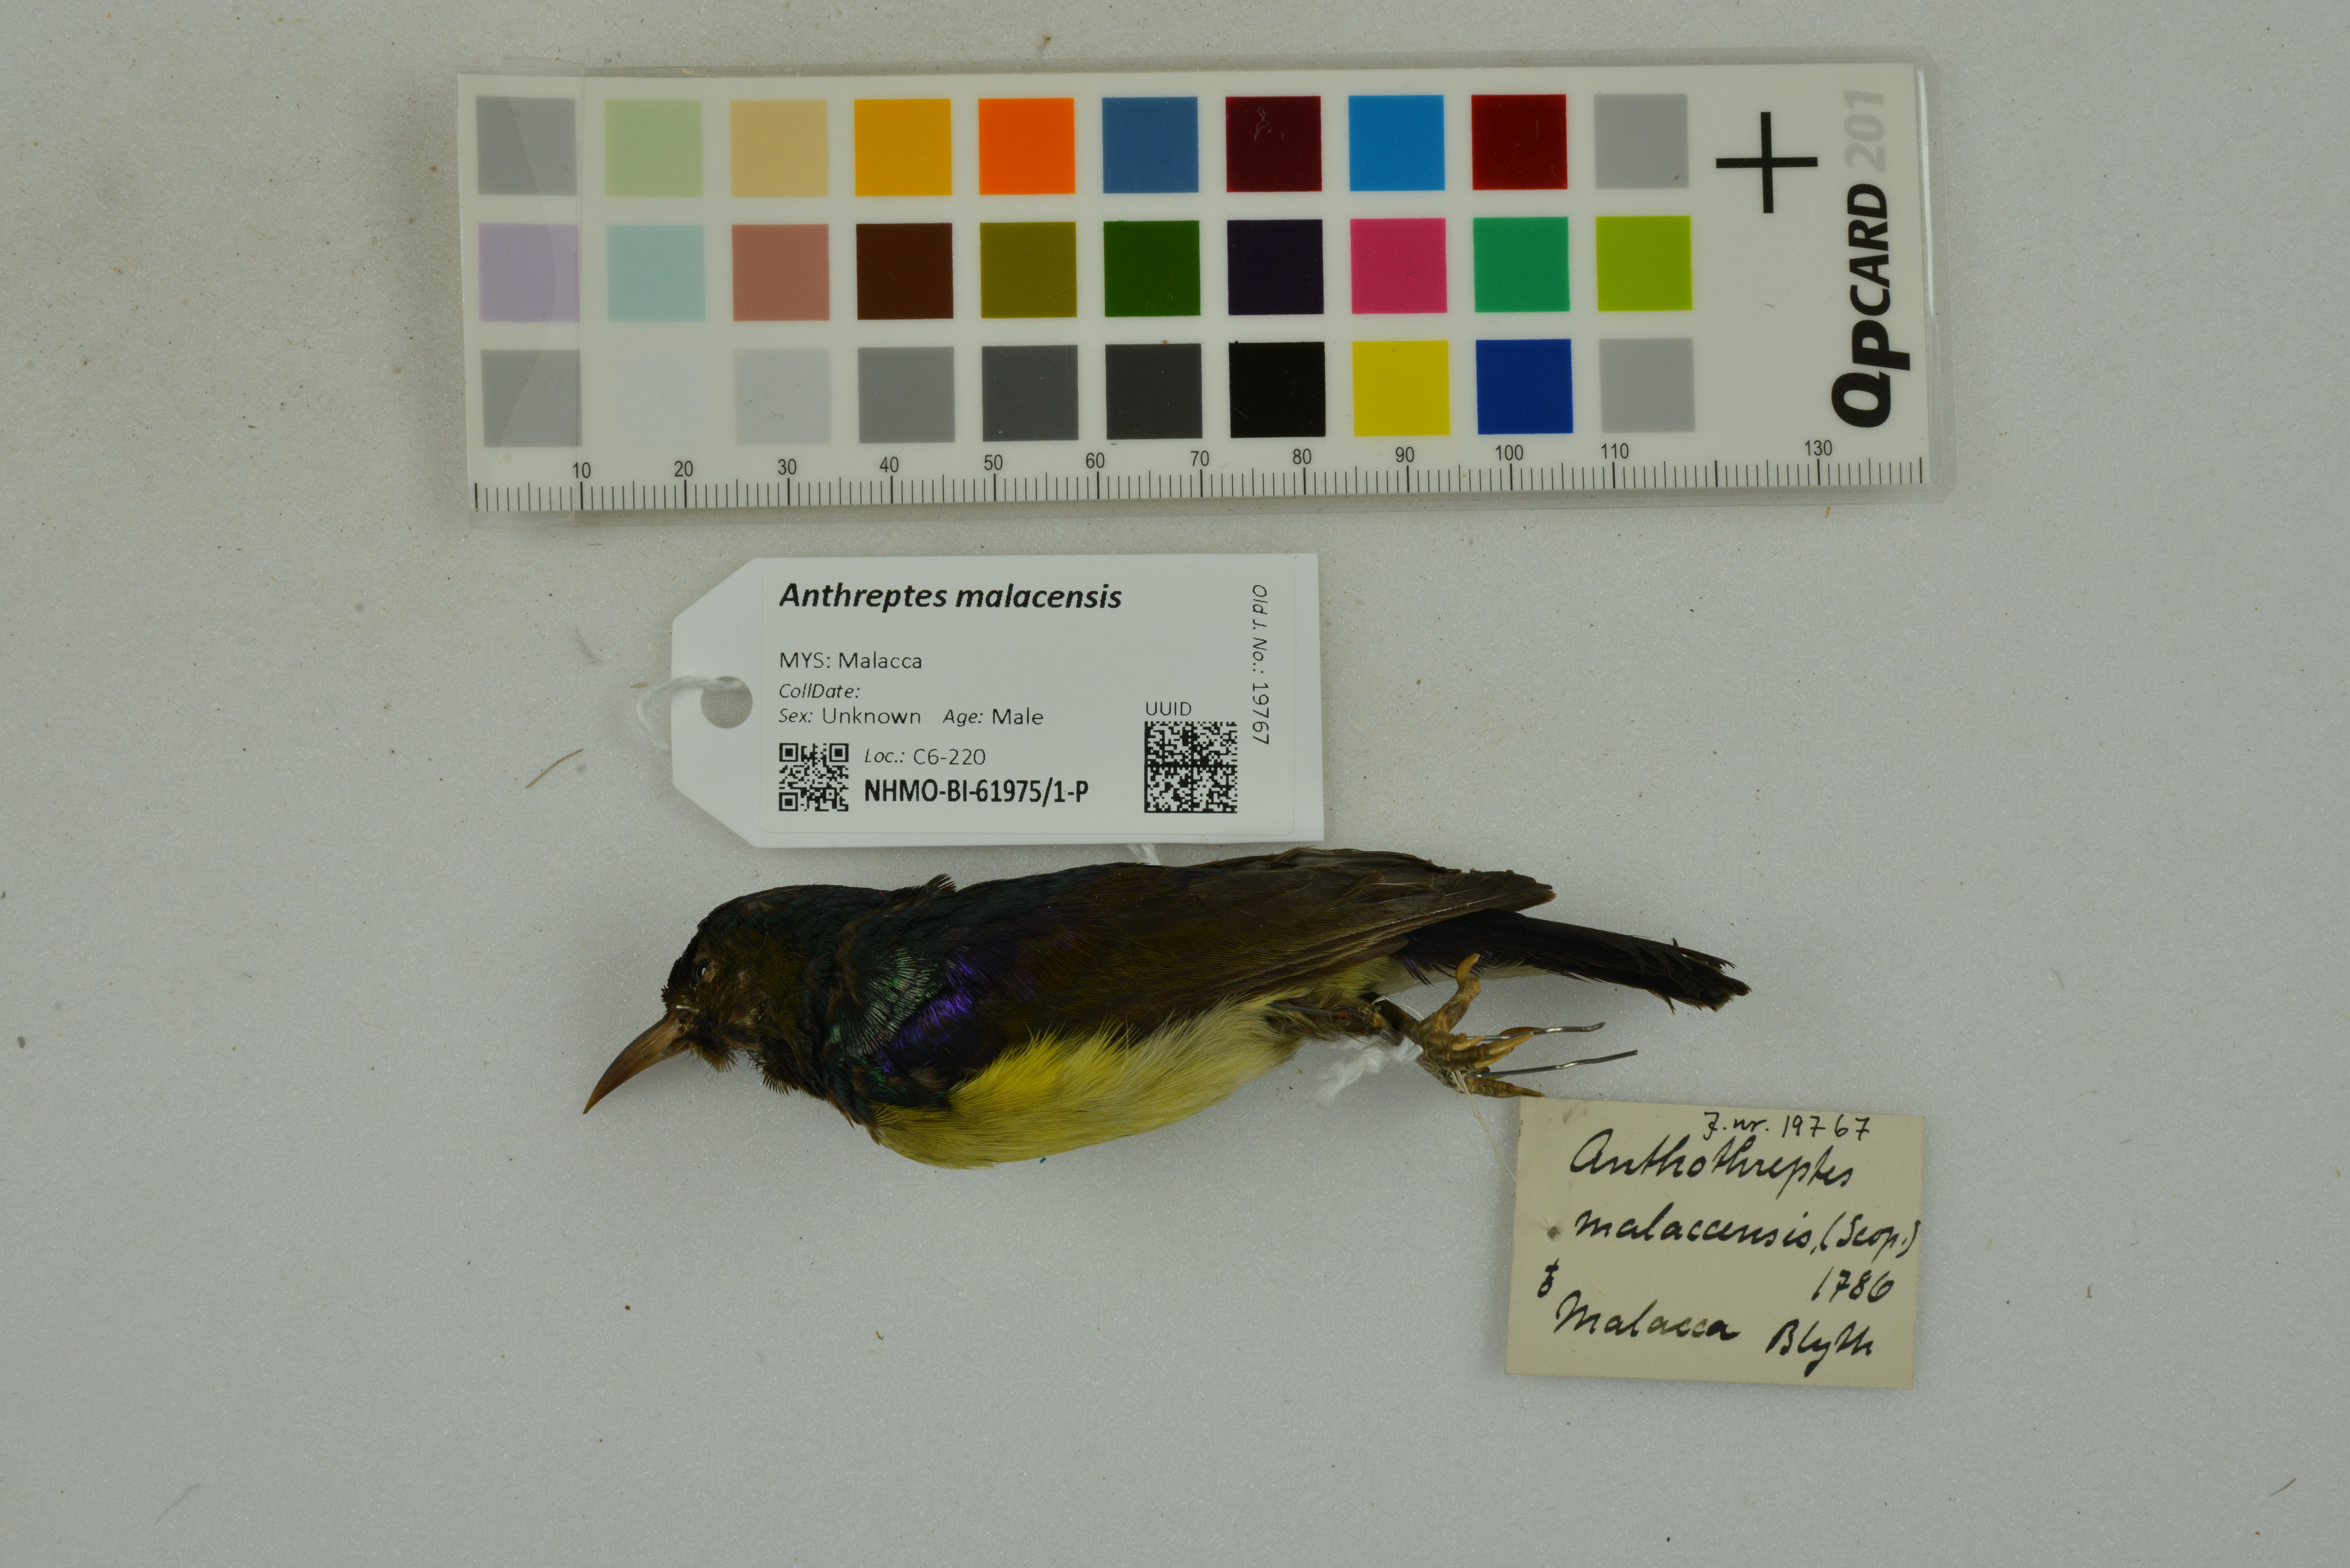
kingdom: Animalia
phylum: Chordata
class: Aves
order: Passeriformes
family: Nectariniidae
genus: Anthreptes
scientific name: Anthreptes malacensis
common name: Brown-throated sunbird
